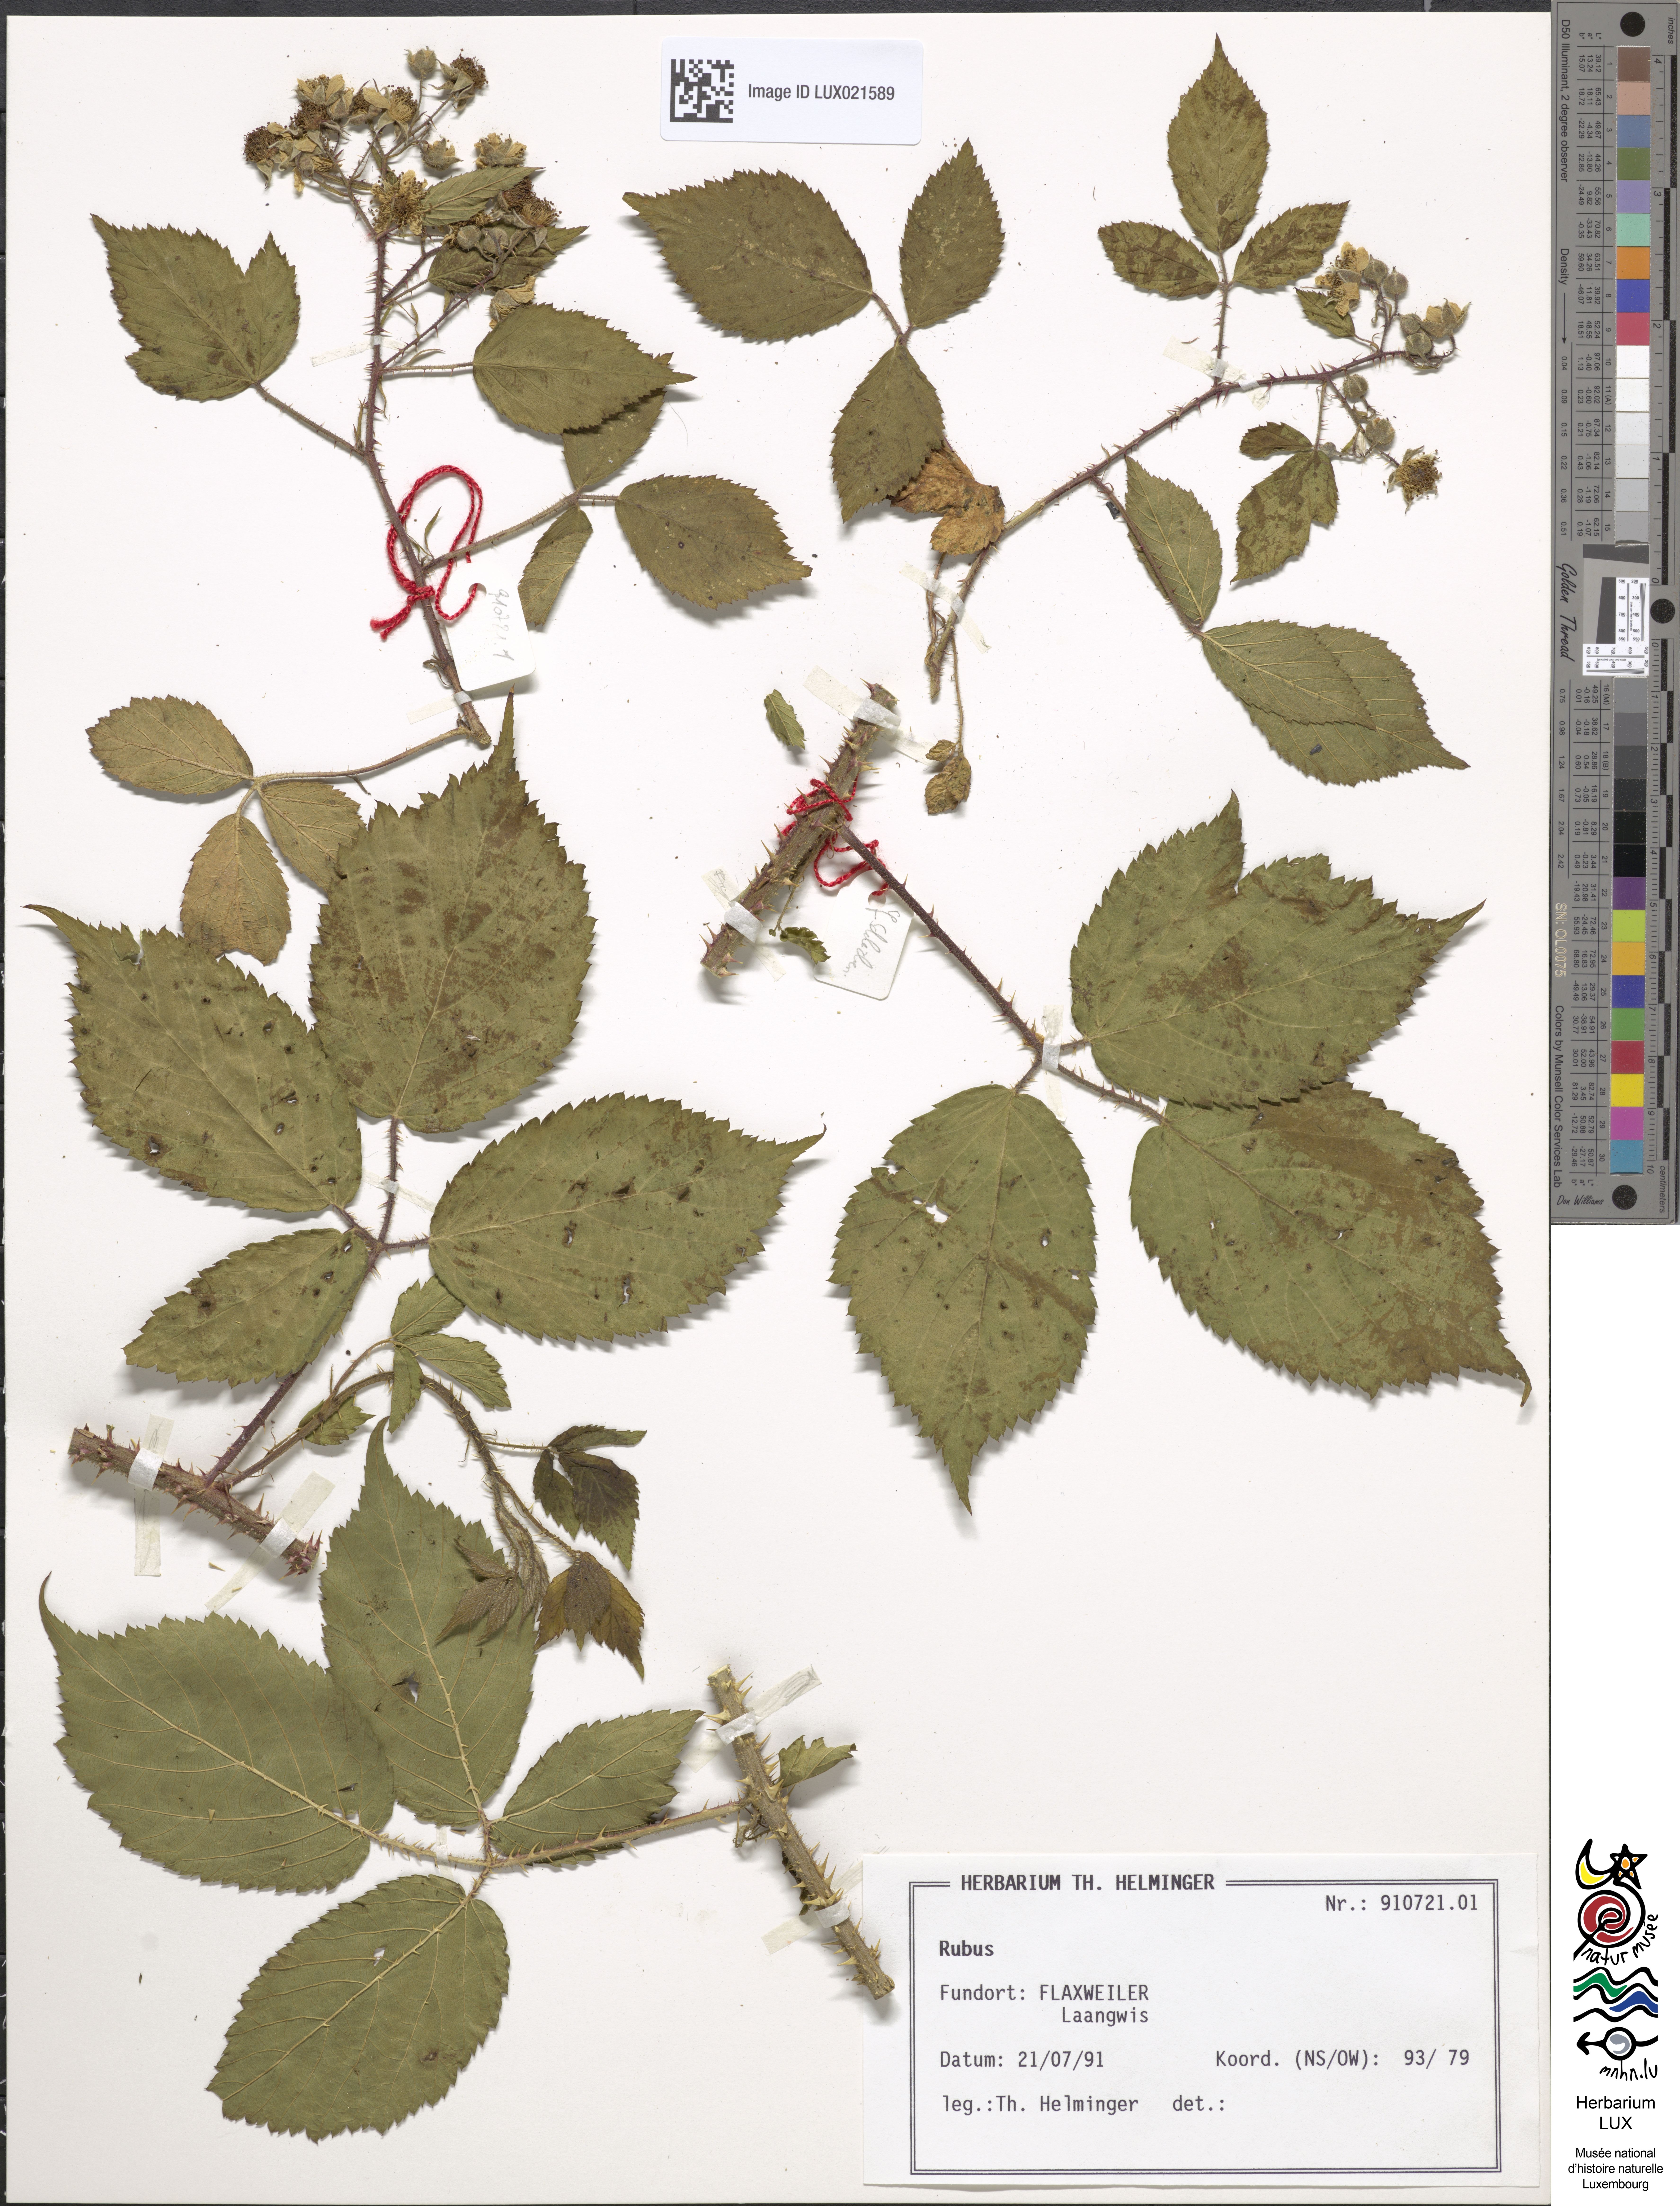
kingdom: Plantae
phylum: Tracheophyta
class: Magnoliopsida
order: Rosales
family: Rosaceae
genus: Rubus
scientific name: Rubus
